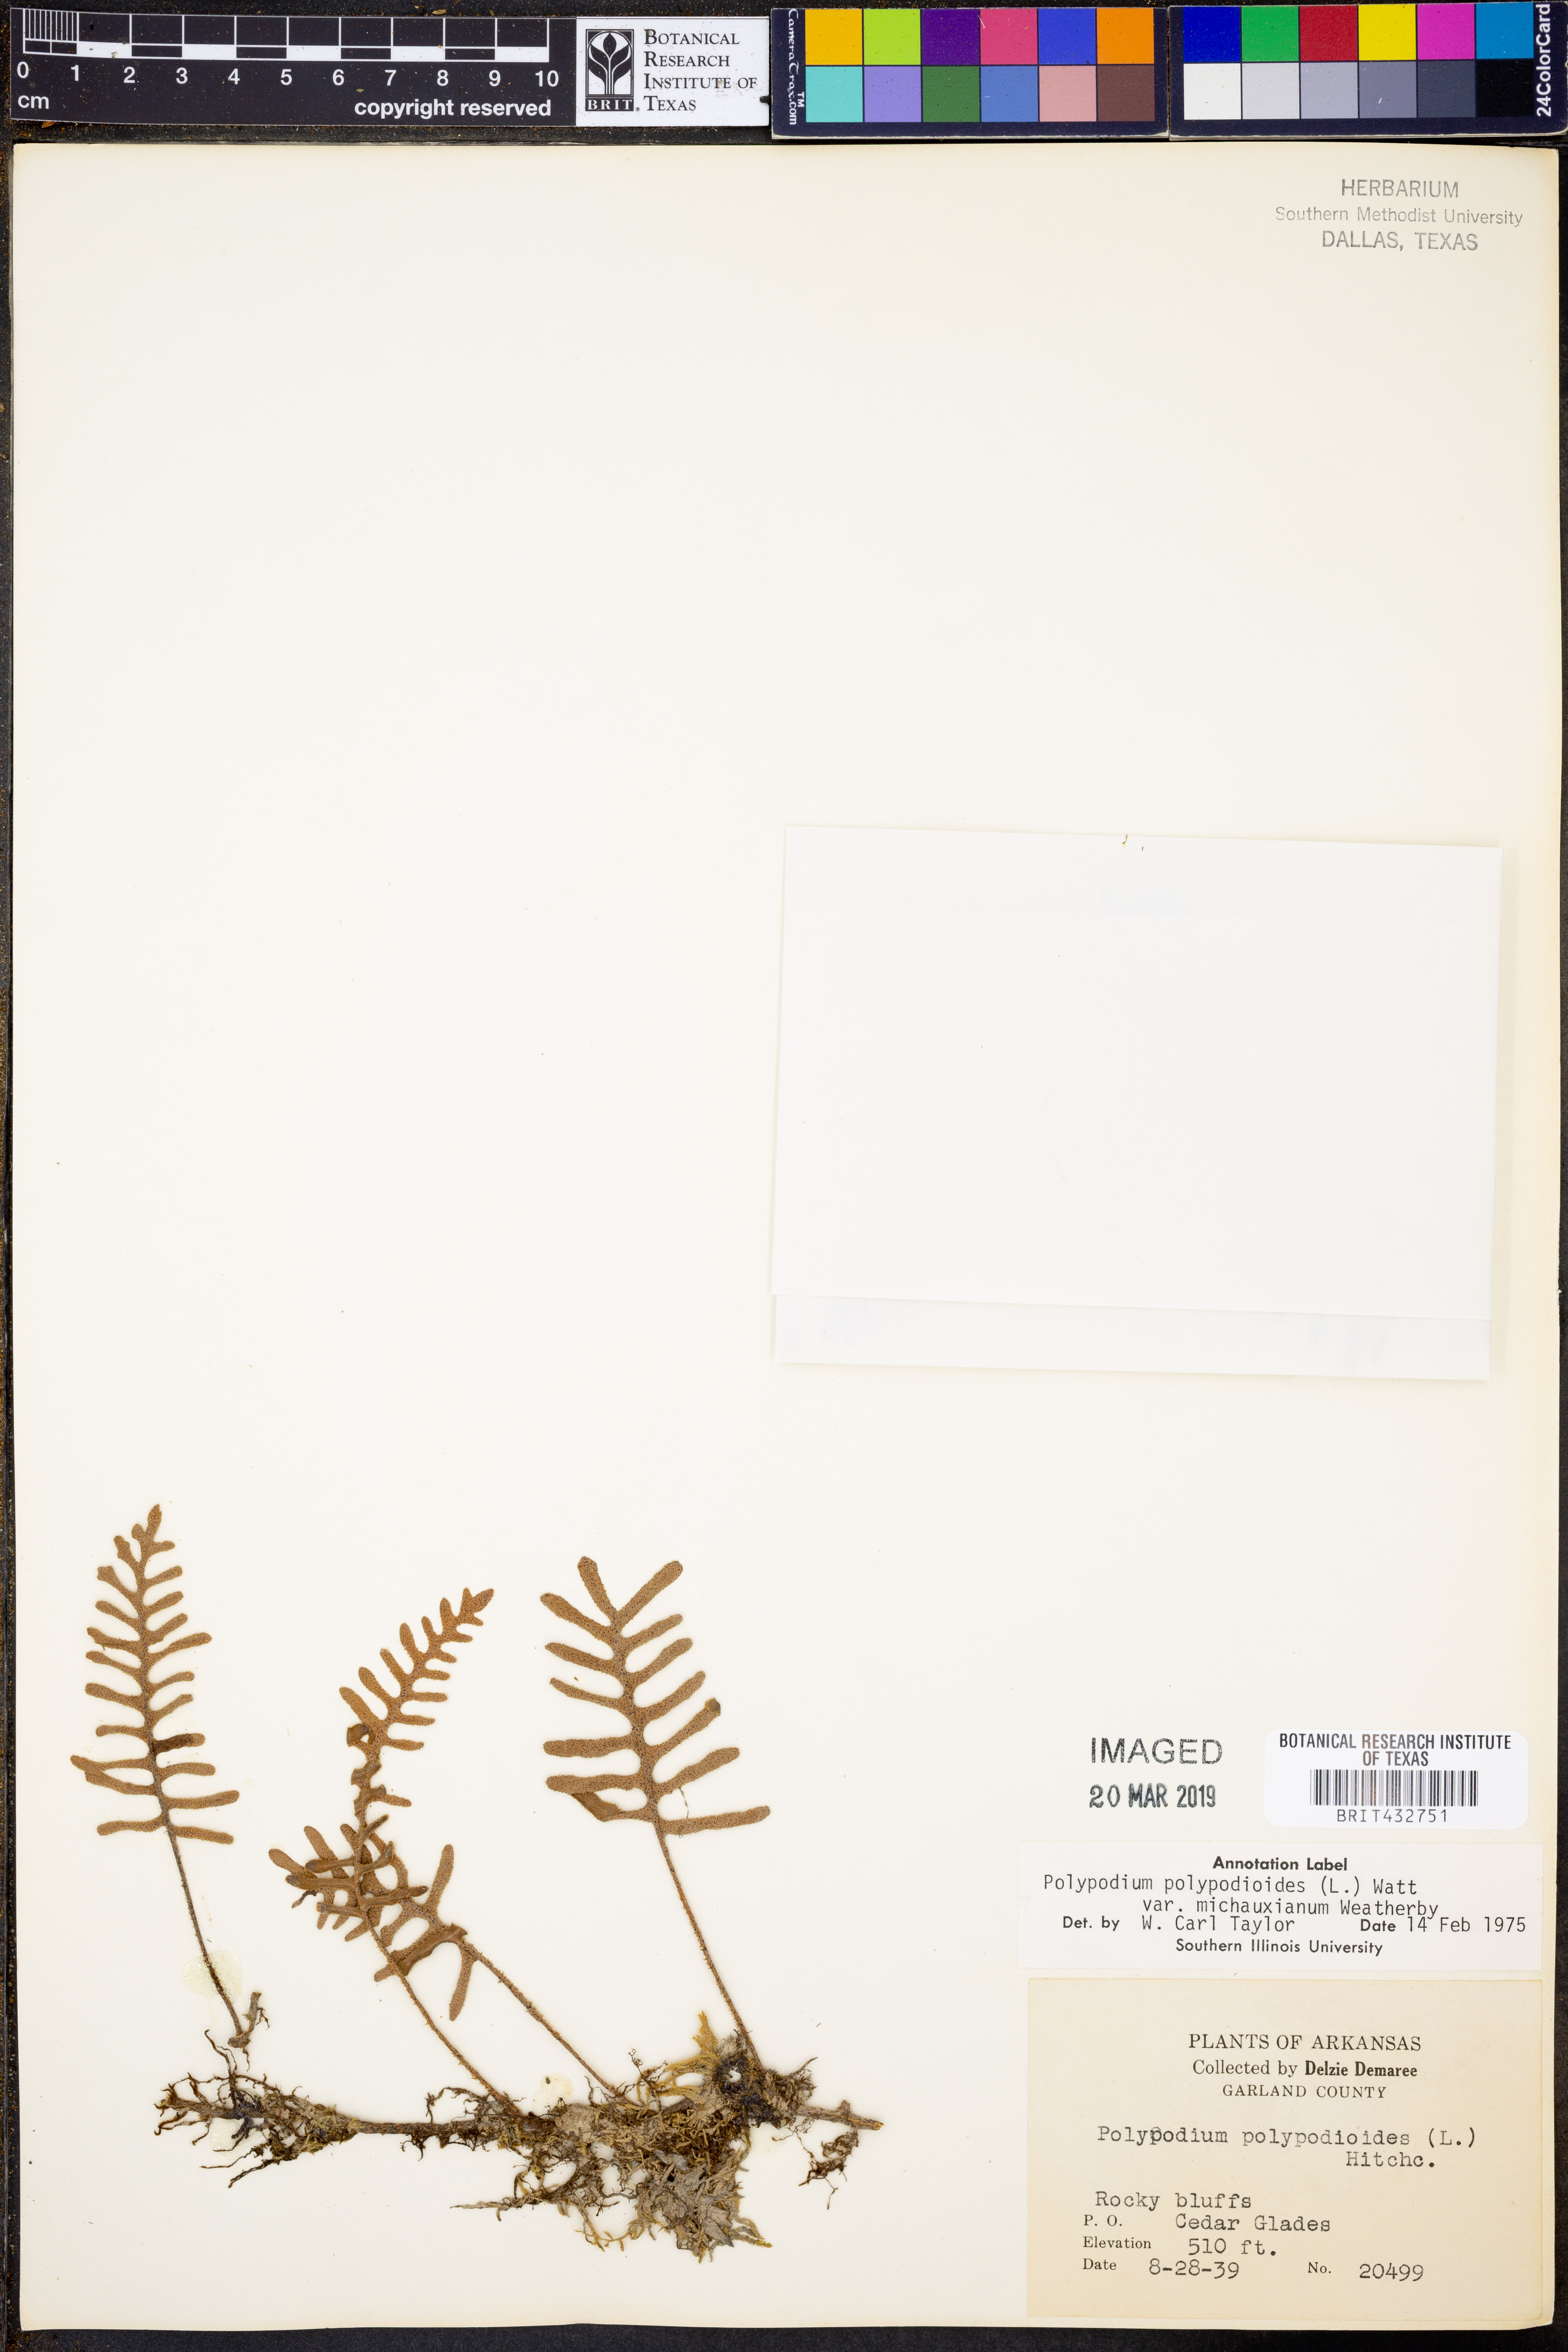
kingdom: Plantae
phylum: Tracheophyta
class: Polypodiopsida
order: Polypodiales
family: Polypodiaceae
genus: Pleopeltis
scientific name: Pleopeltis michauxiana
